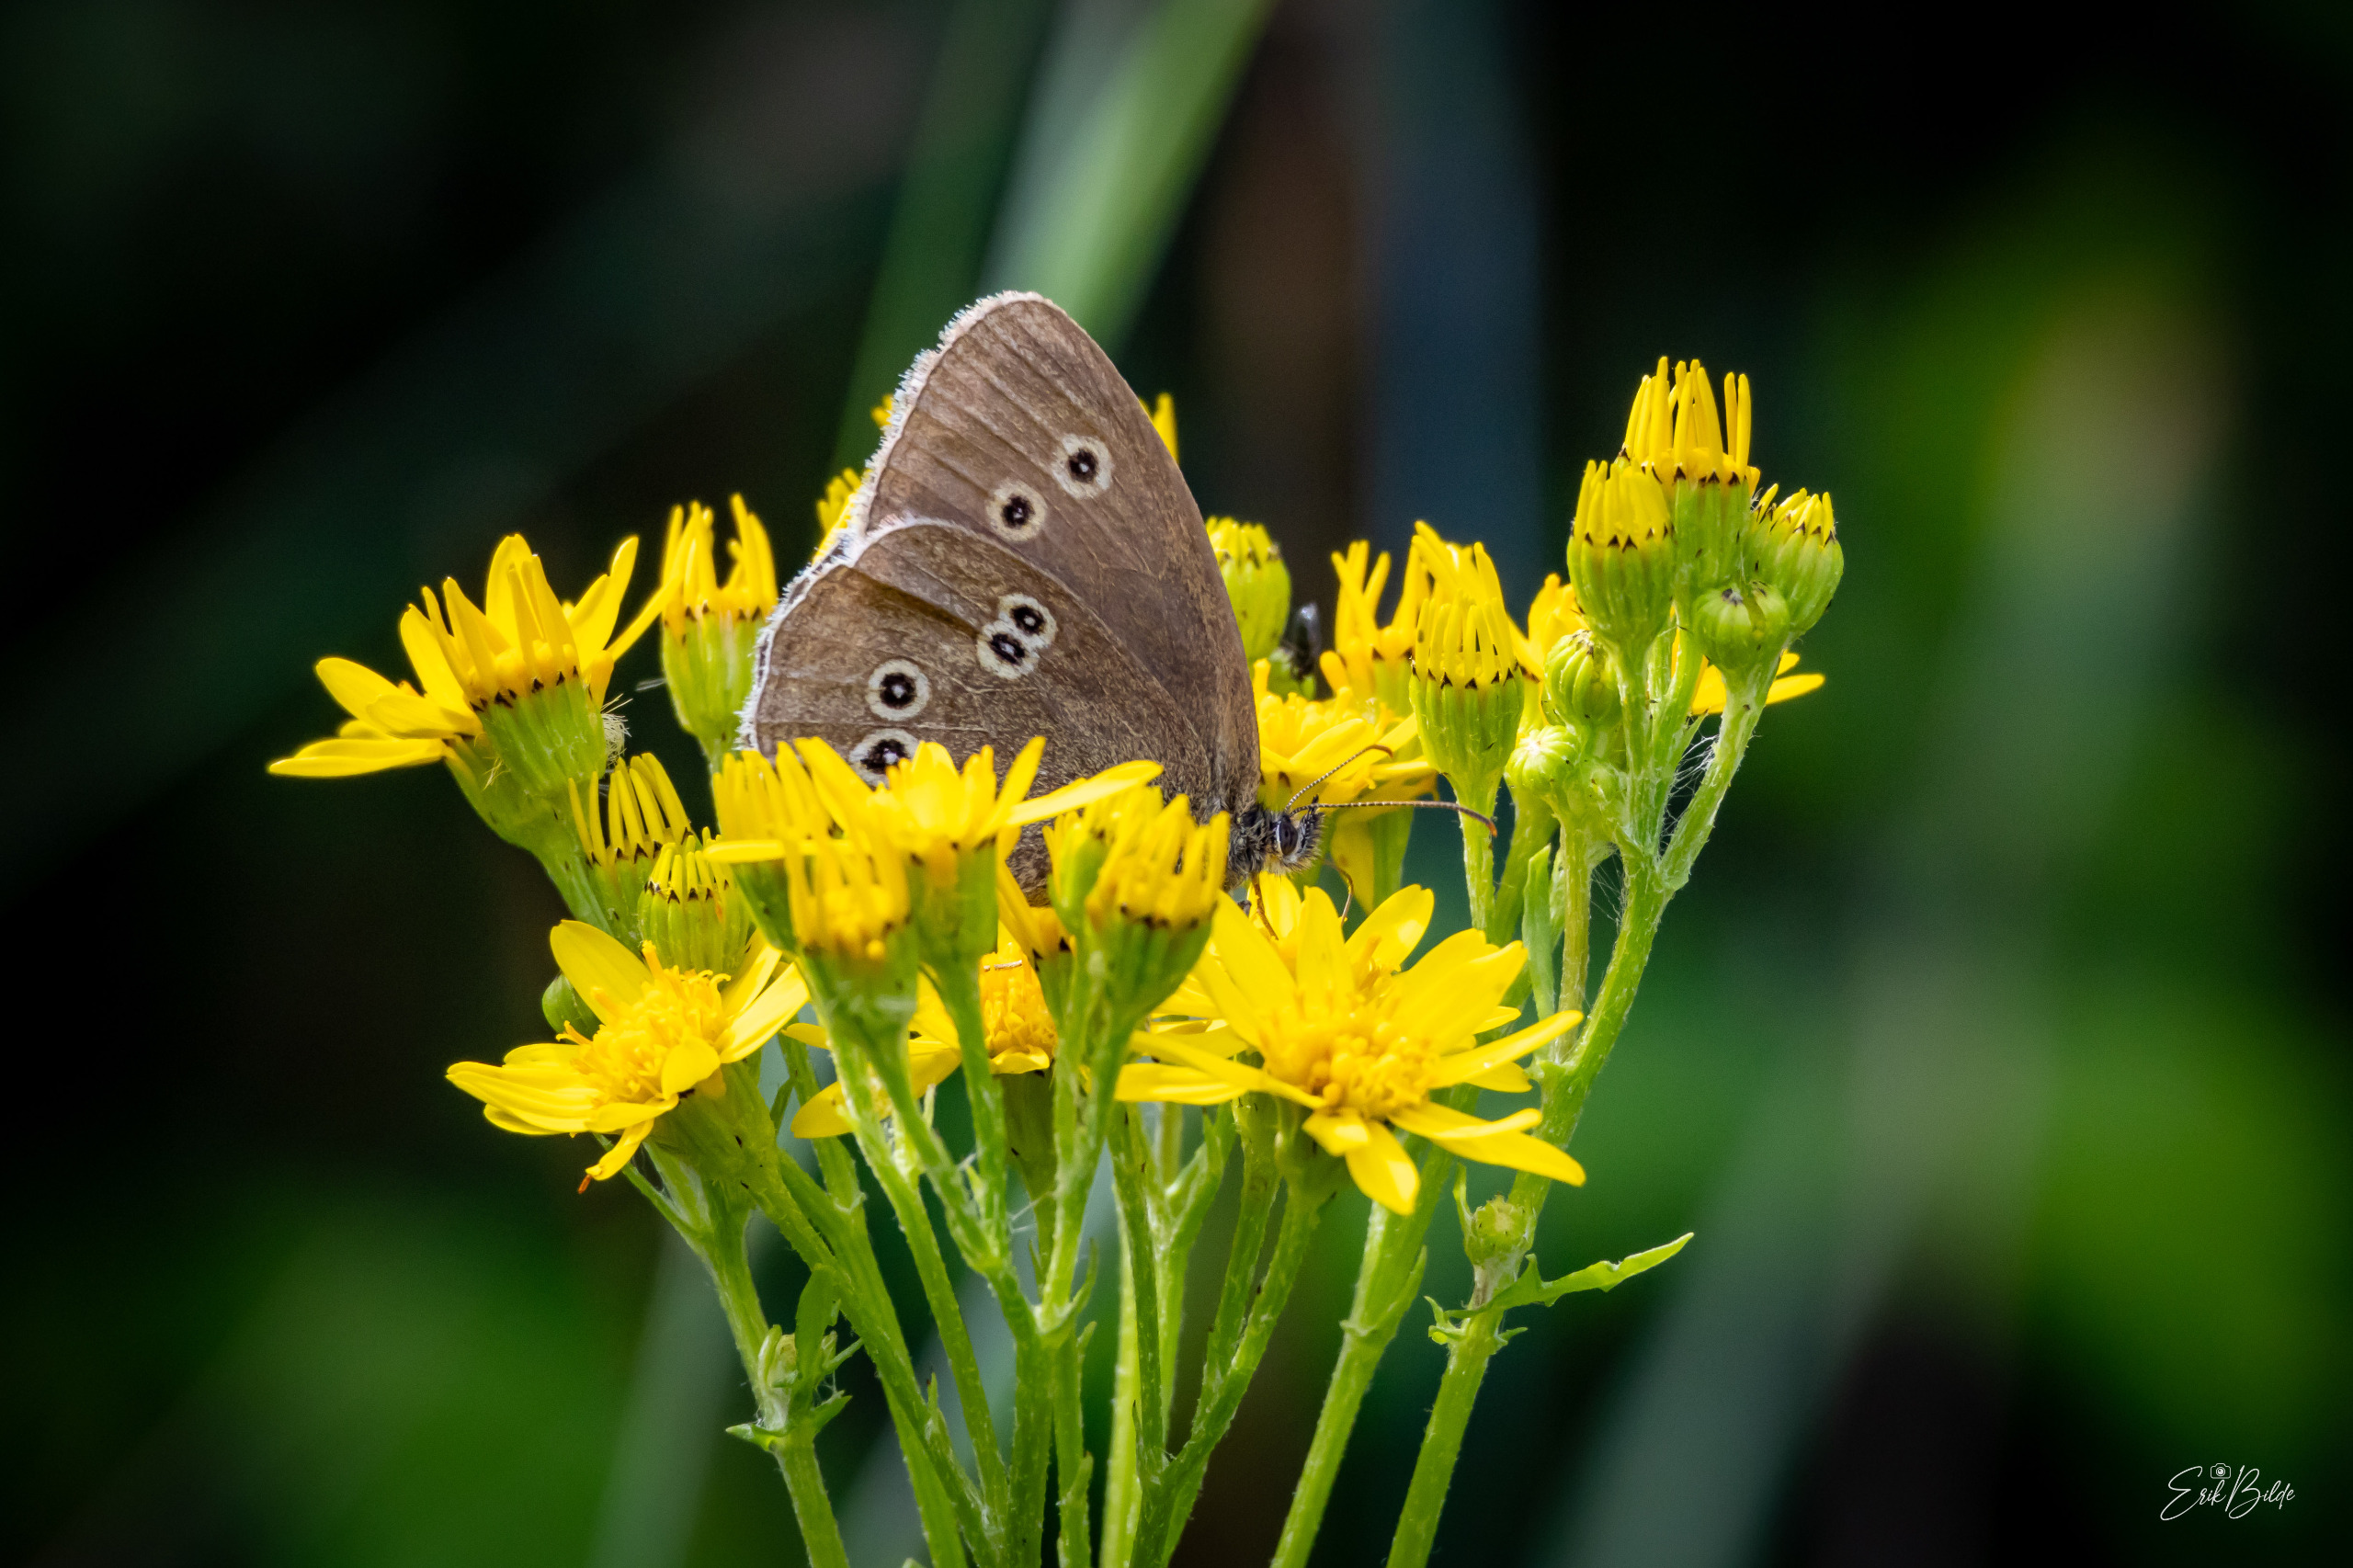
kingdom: Animalia
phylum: Arthropoda
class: Insecta
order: Lepidoptera
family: Nymphalidae
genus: Aphantopus
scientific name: Aphantopus hyperantus
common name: Engrandøje
